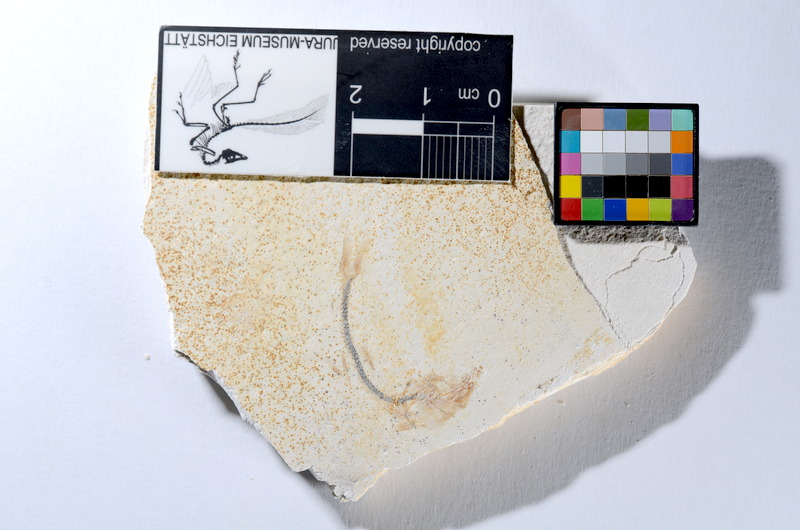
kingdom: Animalia
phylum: Chordata
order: Salmoniformes
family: Orthogonikleithridae
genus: Orthogonikleithrus
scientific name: Orthogonikleithrus hoelli
